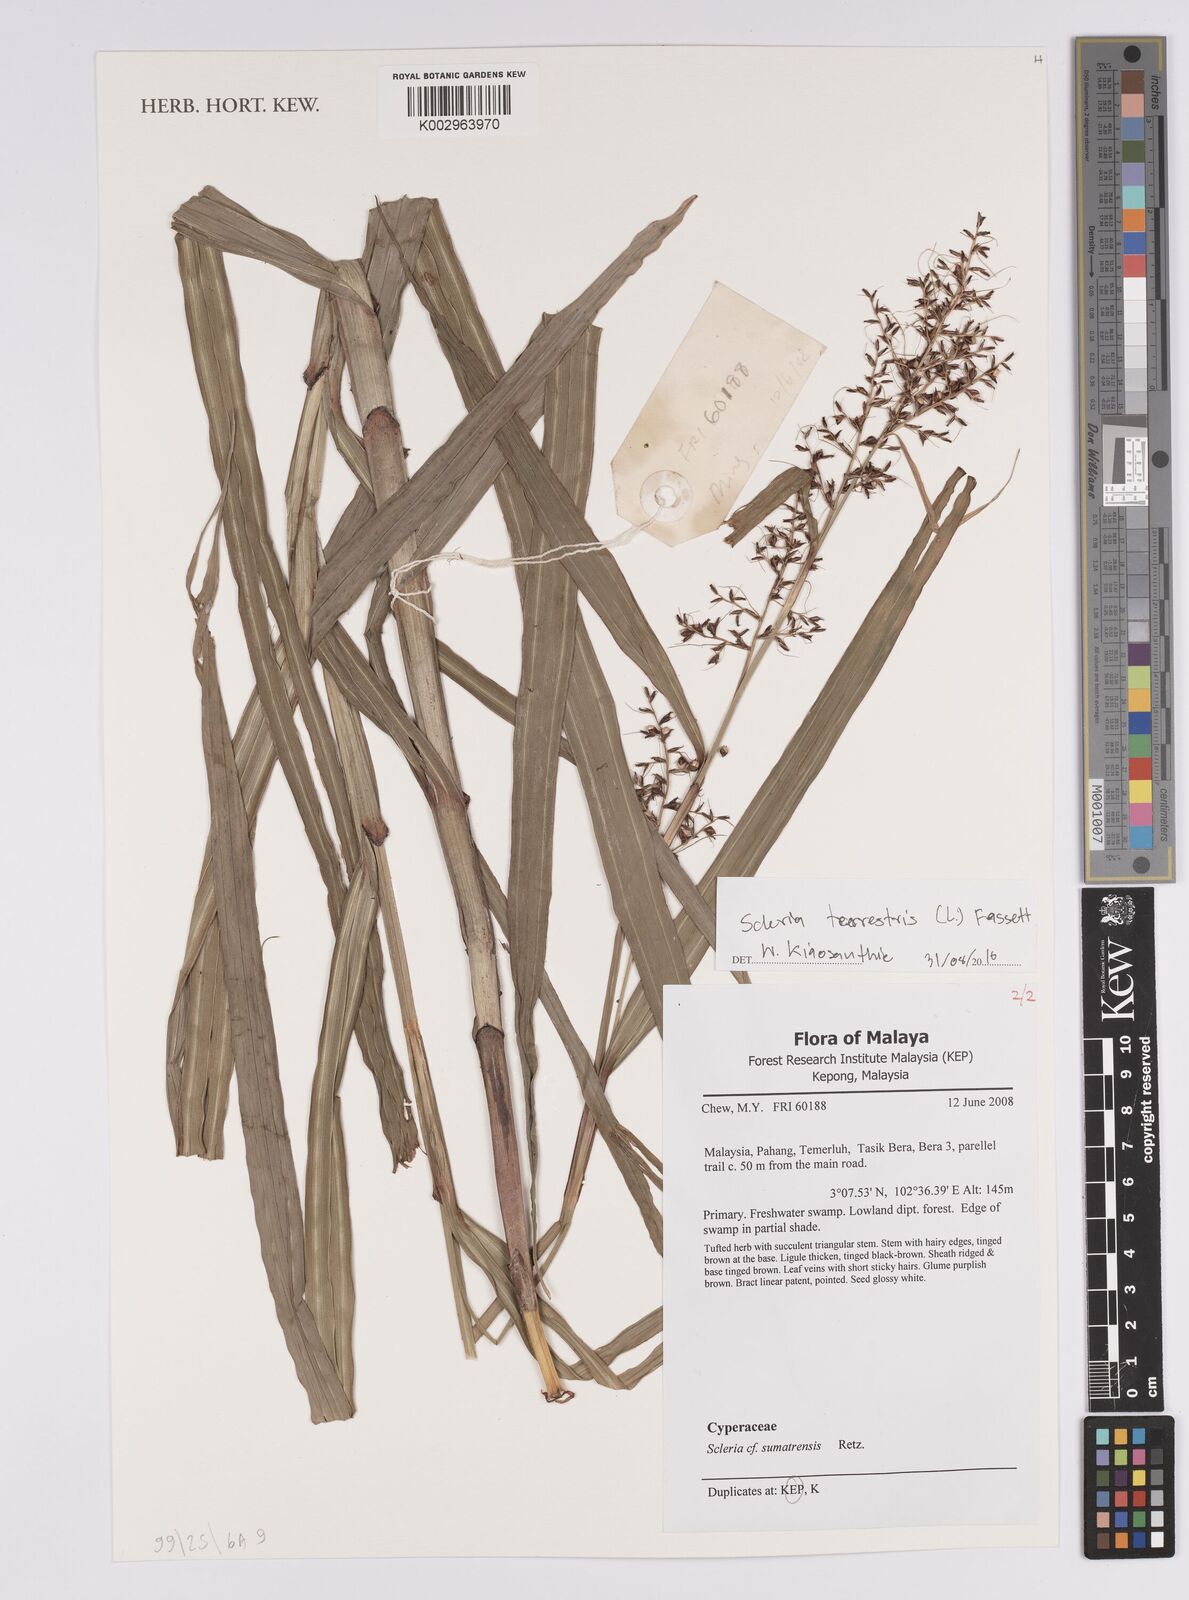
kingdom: Plantae
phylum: Tracheophyta
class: Liliopsida
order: Poales
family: Cyperaceae
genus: Scleria
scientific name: Scleria terrestris
